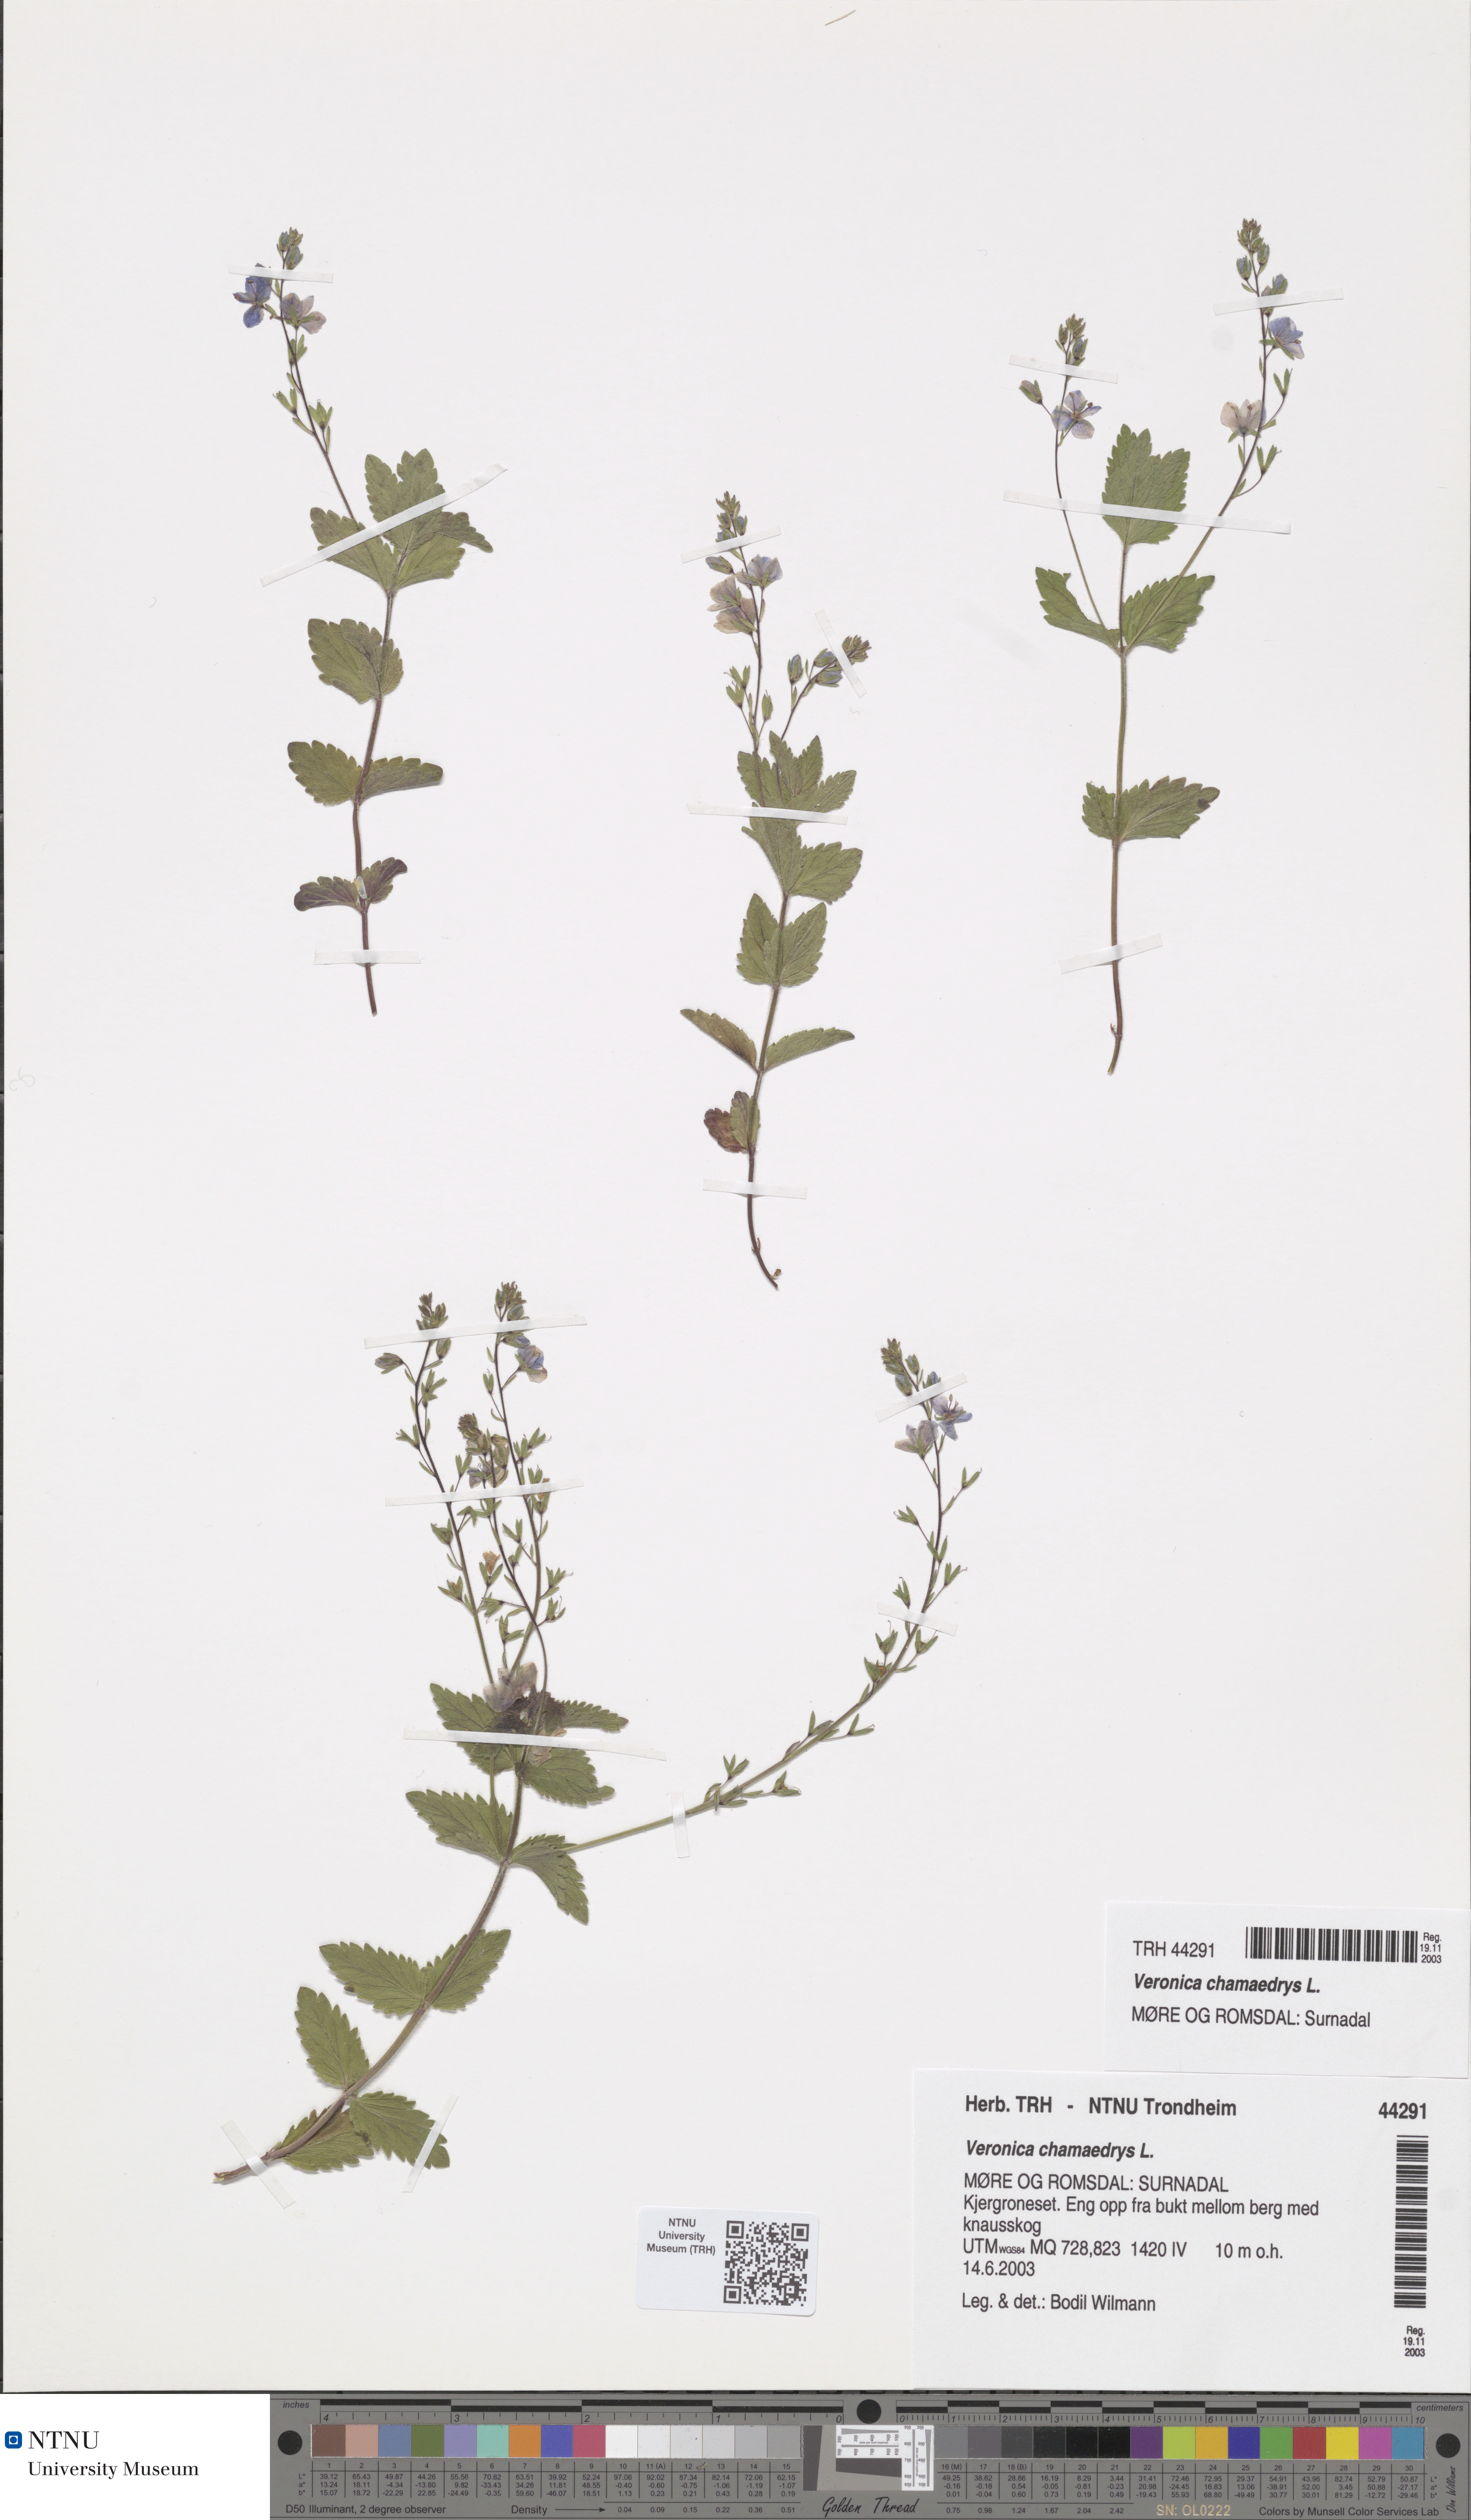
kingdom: Plantae
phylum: Tracheophyta
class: Magnoliopsida
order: Lamiales
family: Plantaginaceae
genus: Veronica
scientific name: Veronica chamaedrys
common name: Germander speedwell
